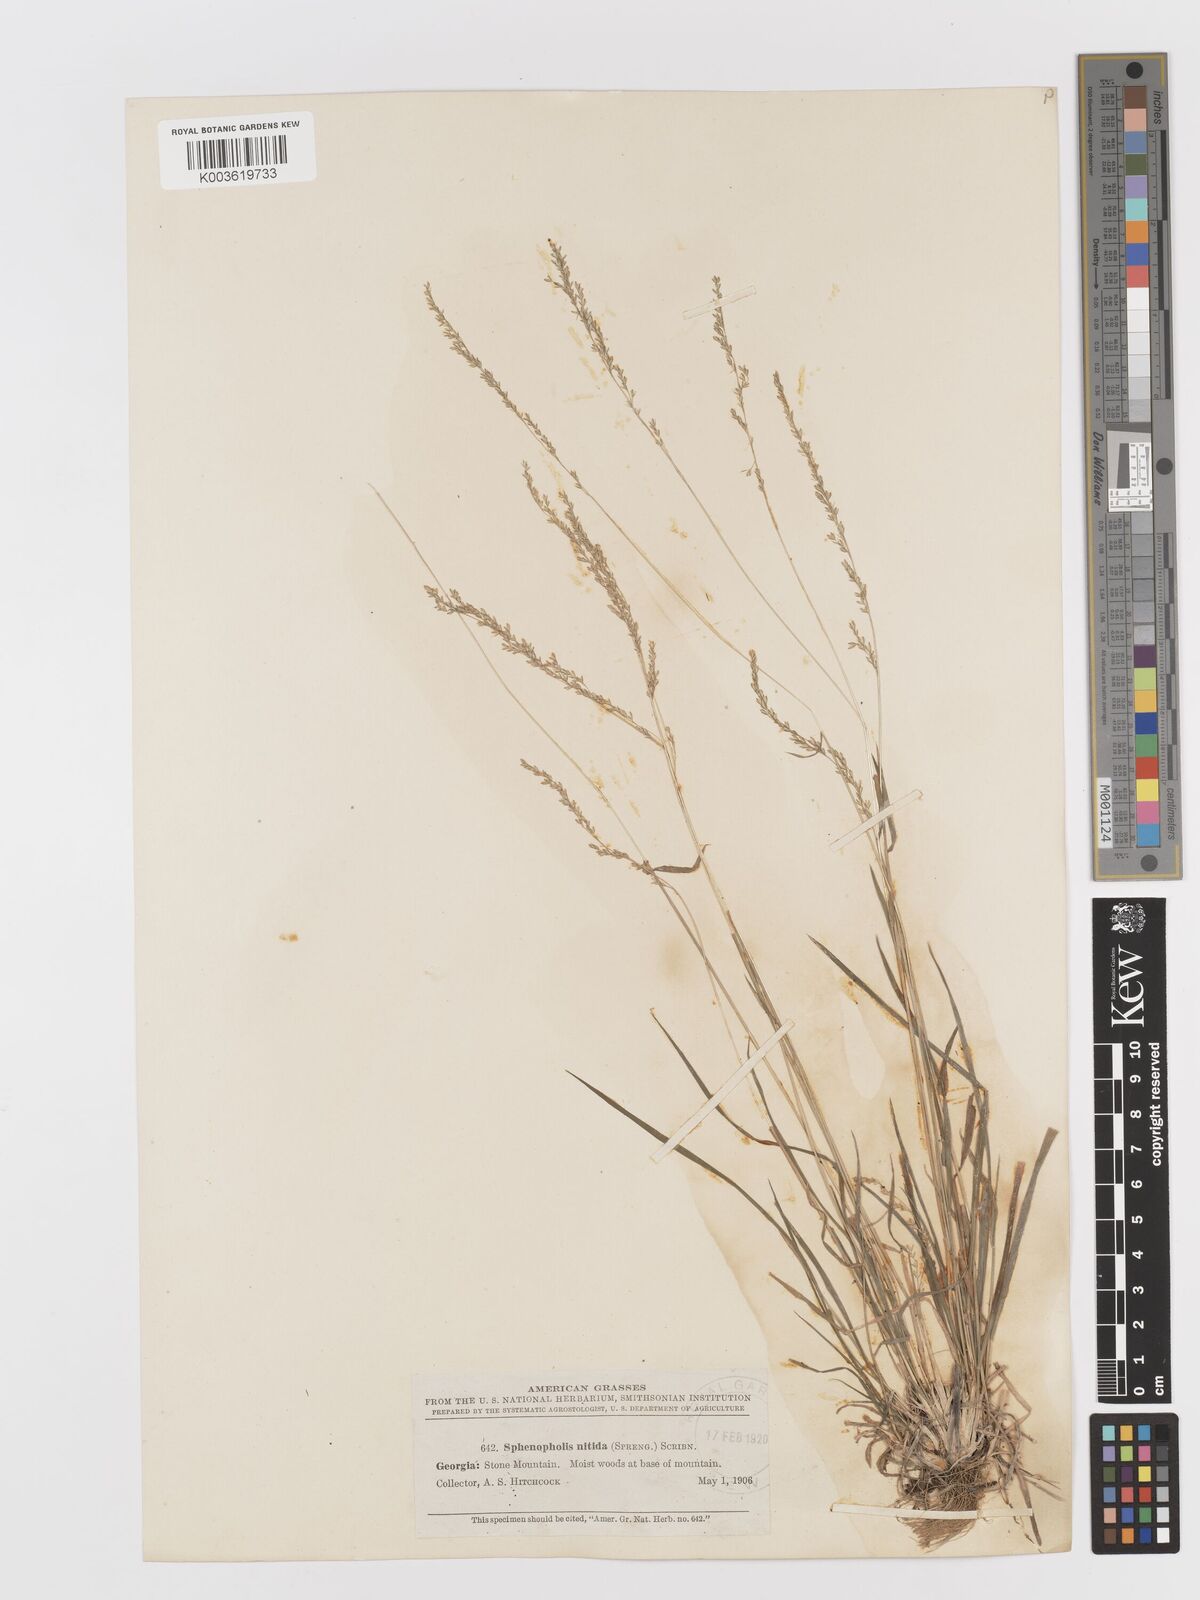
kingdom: Plantae
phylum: Tracheophyta
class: Liliopsida
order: Poales
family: Poaceae
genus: Sphenopholis
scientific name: Sphenopholis nitida
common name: Shiny wedgegrass
